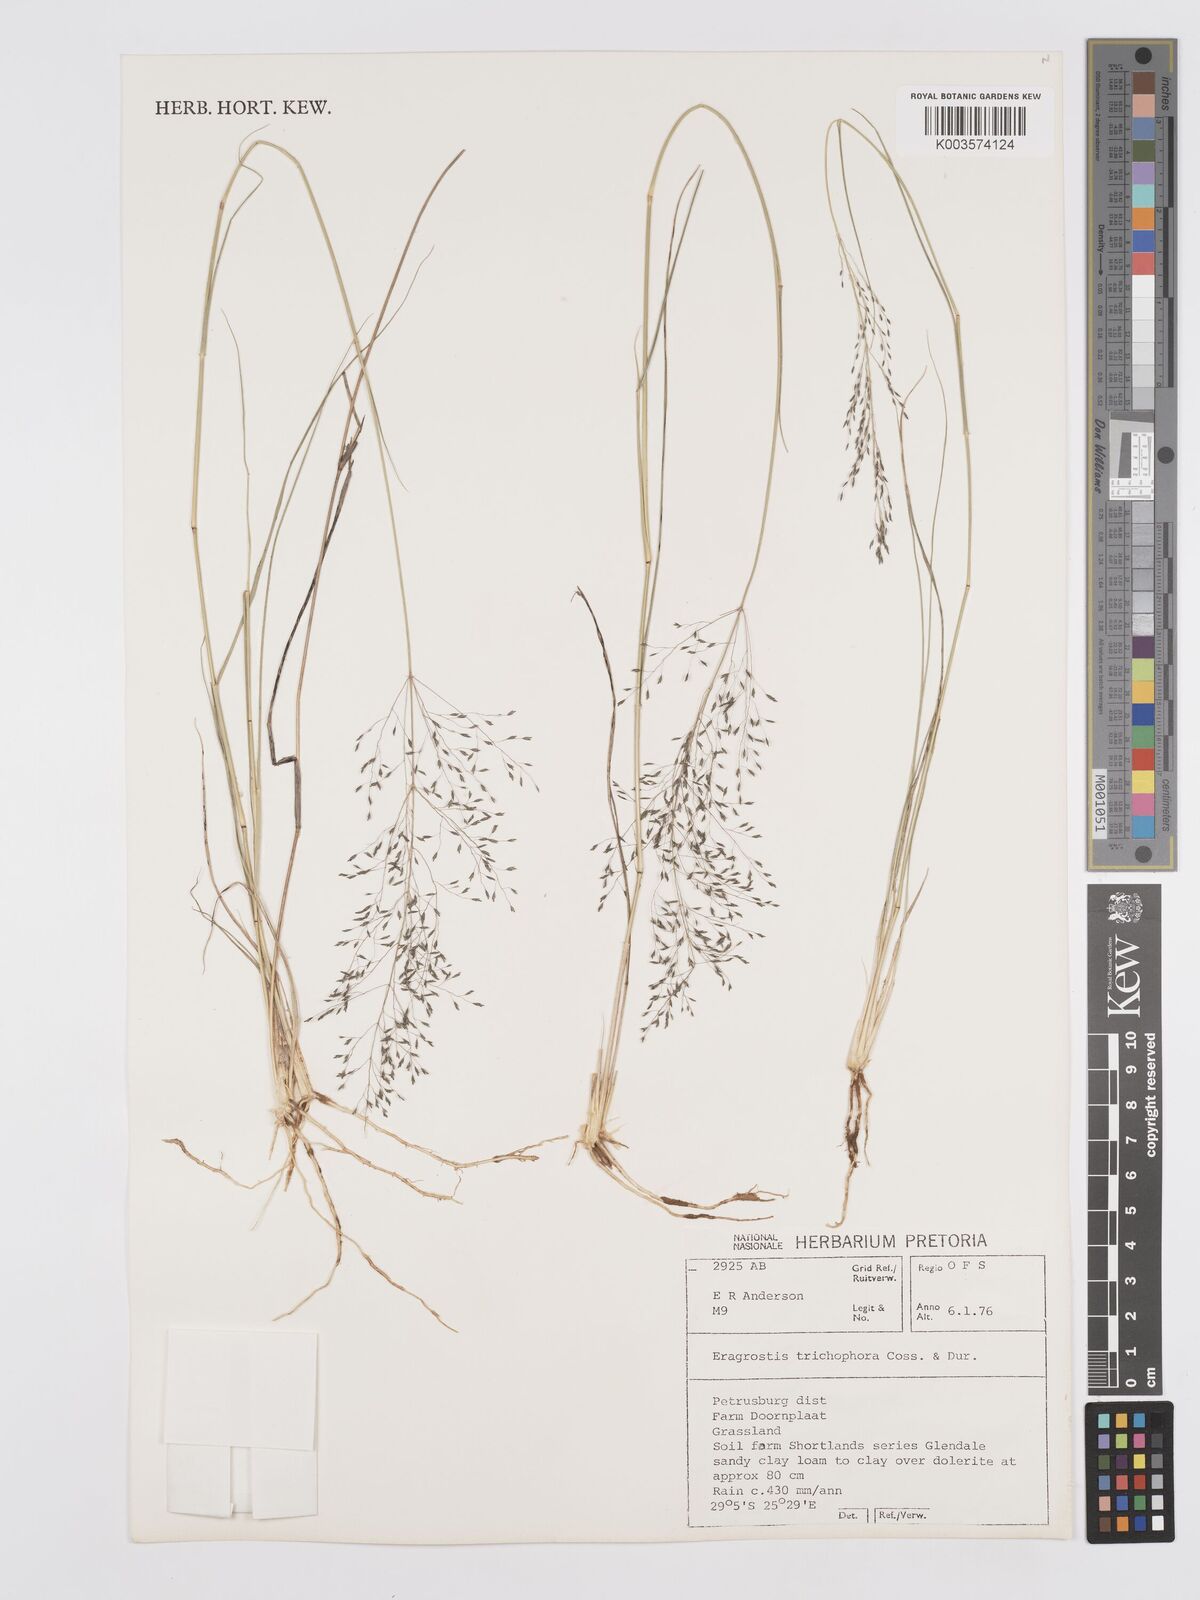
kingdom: Plantae
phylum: Tracheophyta
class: Liliopsida
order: Poales
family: Poaceae
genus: Eragrostis
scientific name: Eragrostis cylindriflora
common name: Cylinderflower lovegrass
